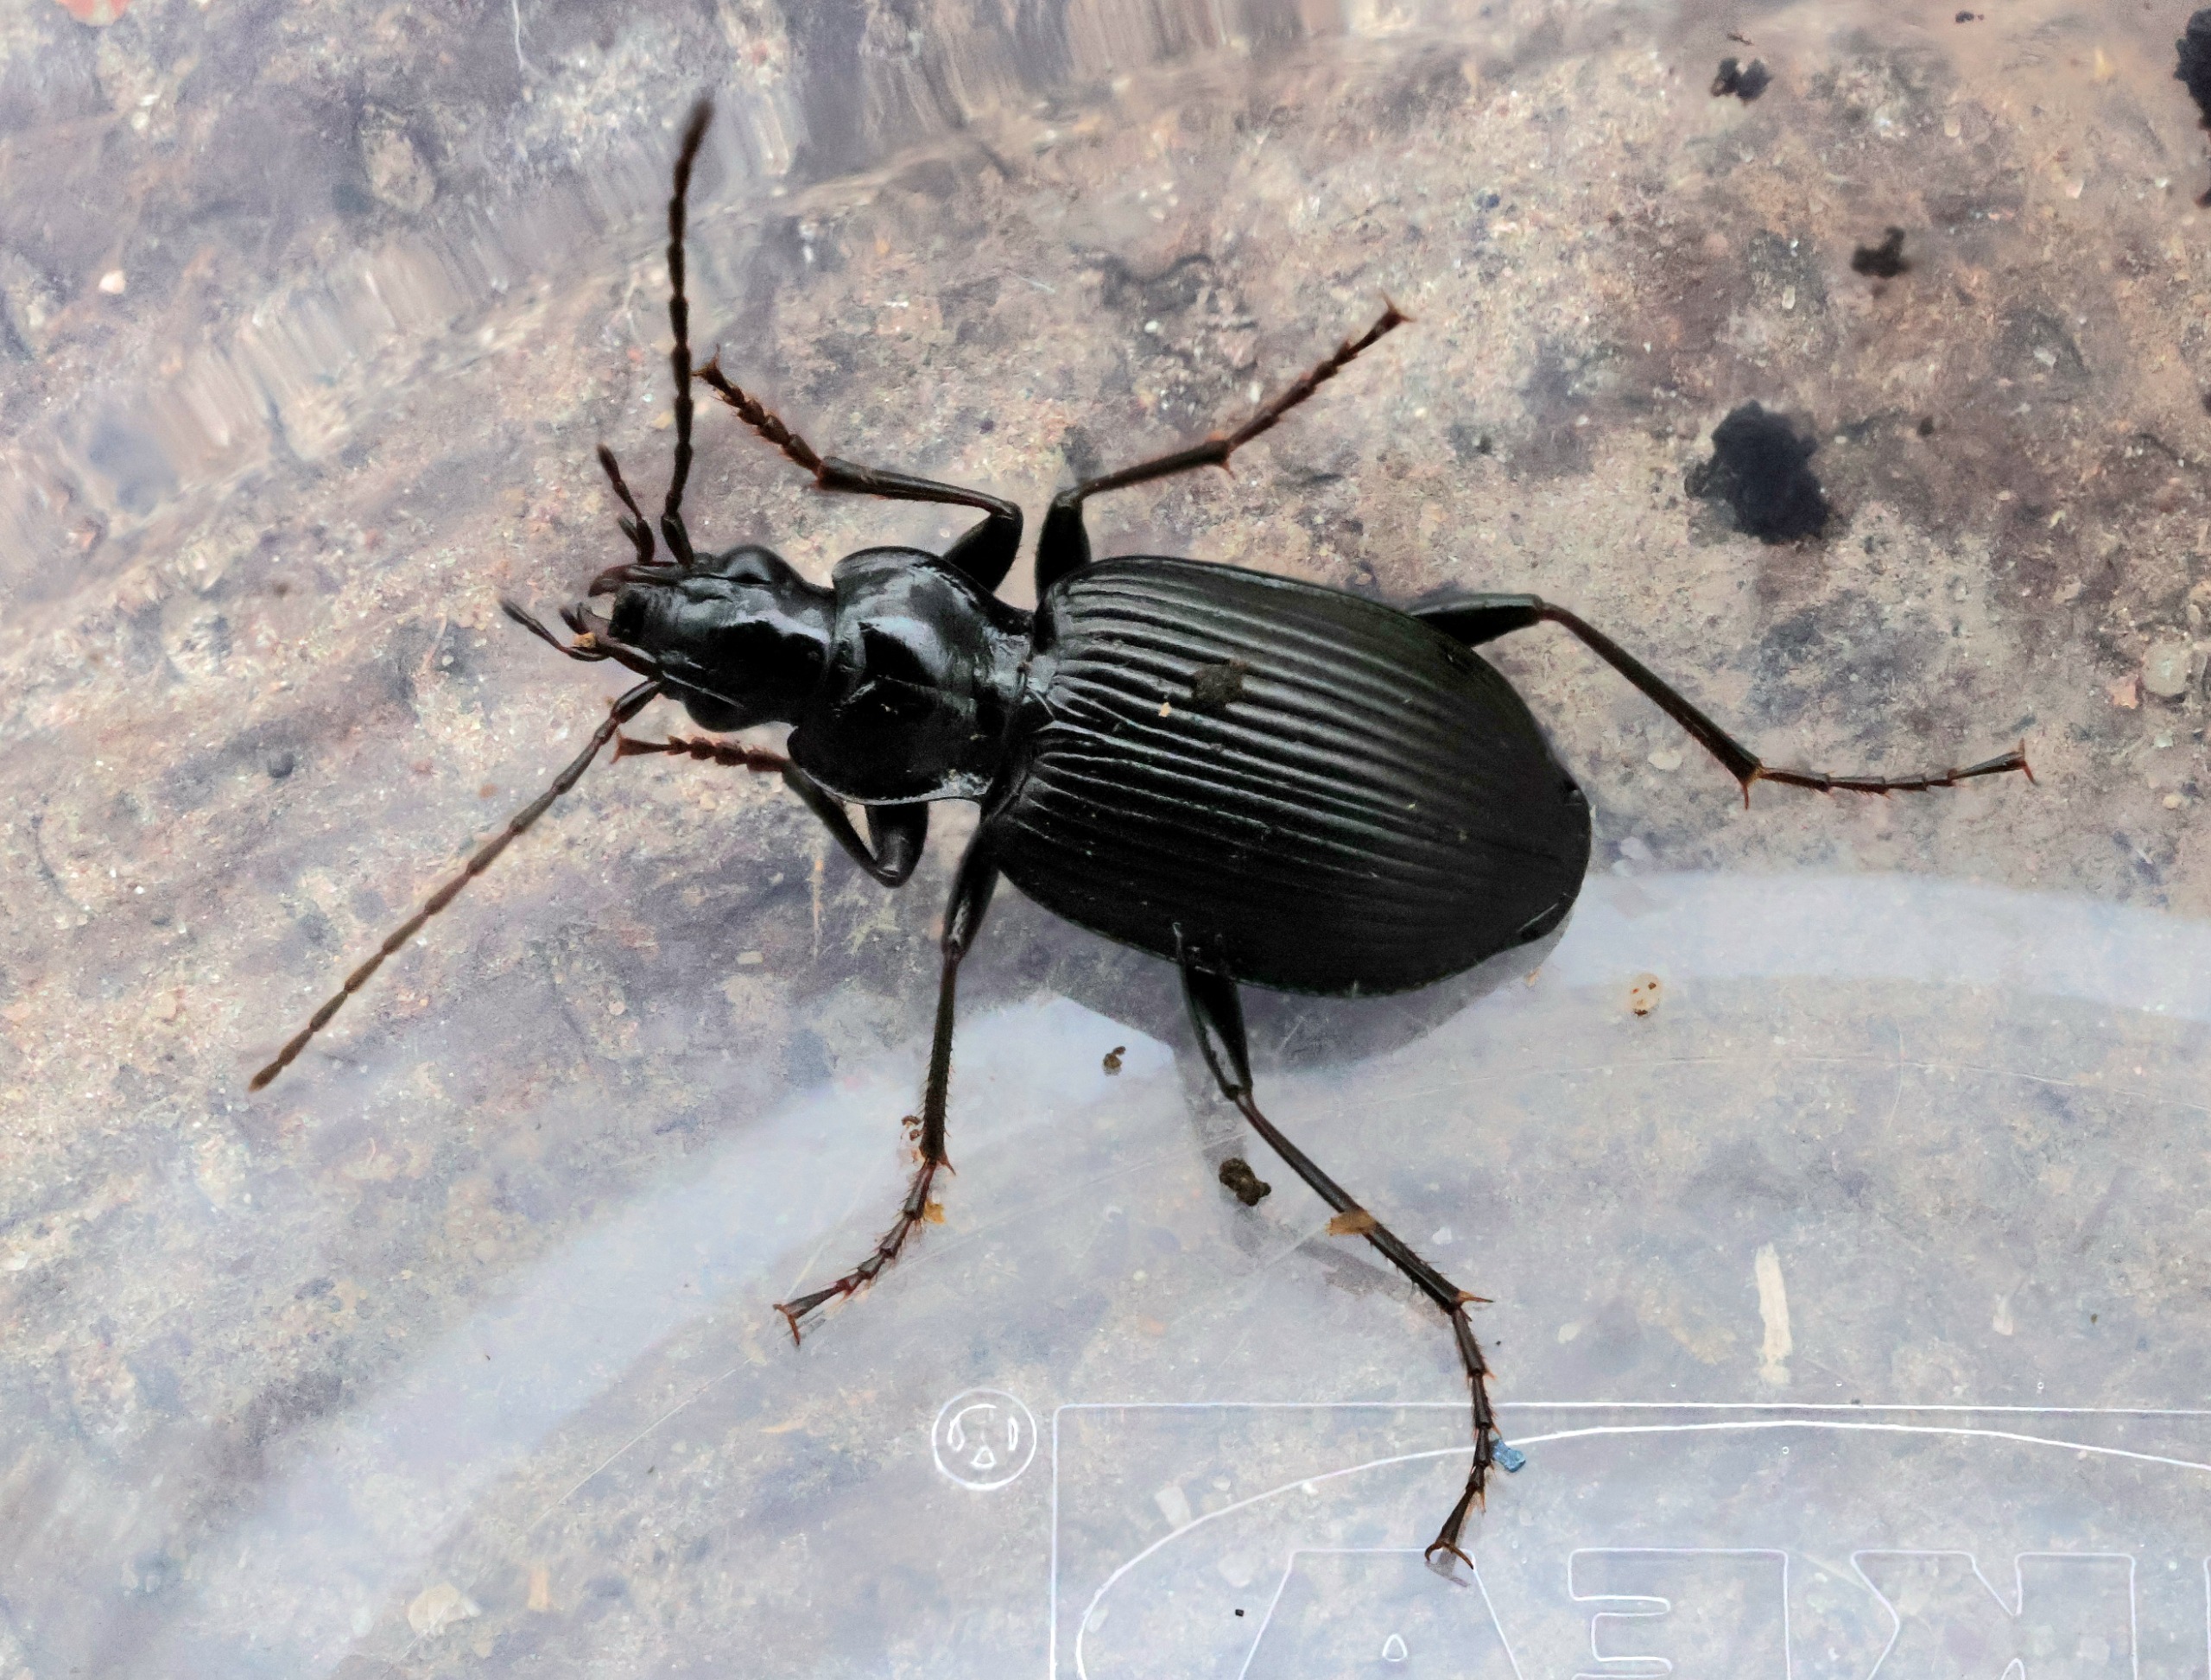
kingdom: Animalia
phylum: Arthropoda
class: Insecta
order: Coleoptera
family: Carabidae
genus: Platynus
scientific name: Platynus assimilis
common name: Skovkvikløber
